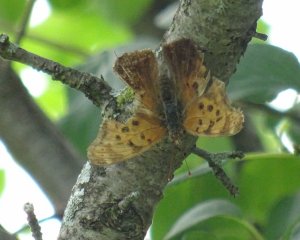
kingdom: Animalia
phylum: Arthropoda
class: Insecta
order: Lepidoptera
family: Nymphalidae
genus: Polygonia
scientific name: Polygonia
